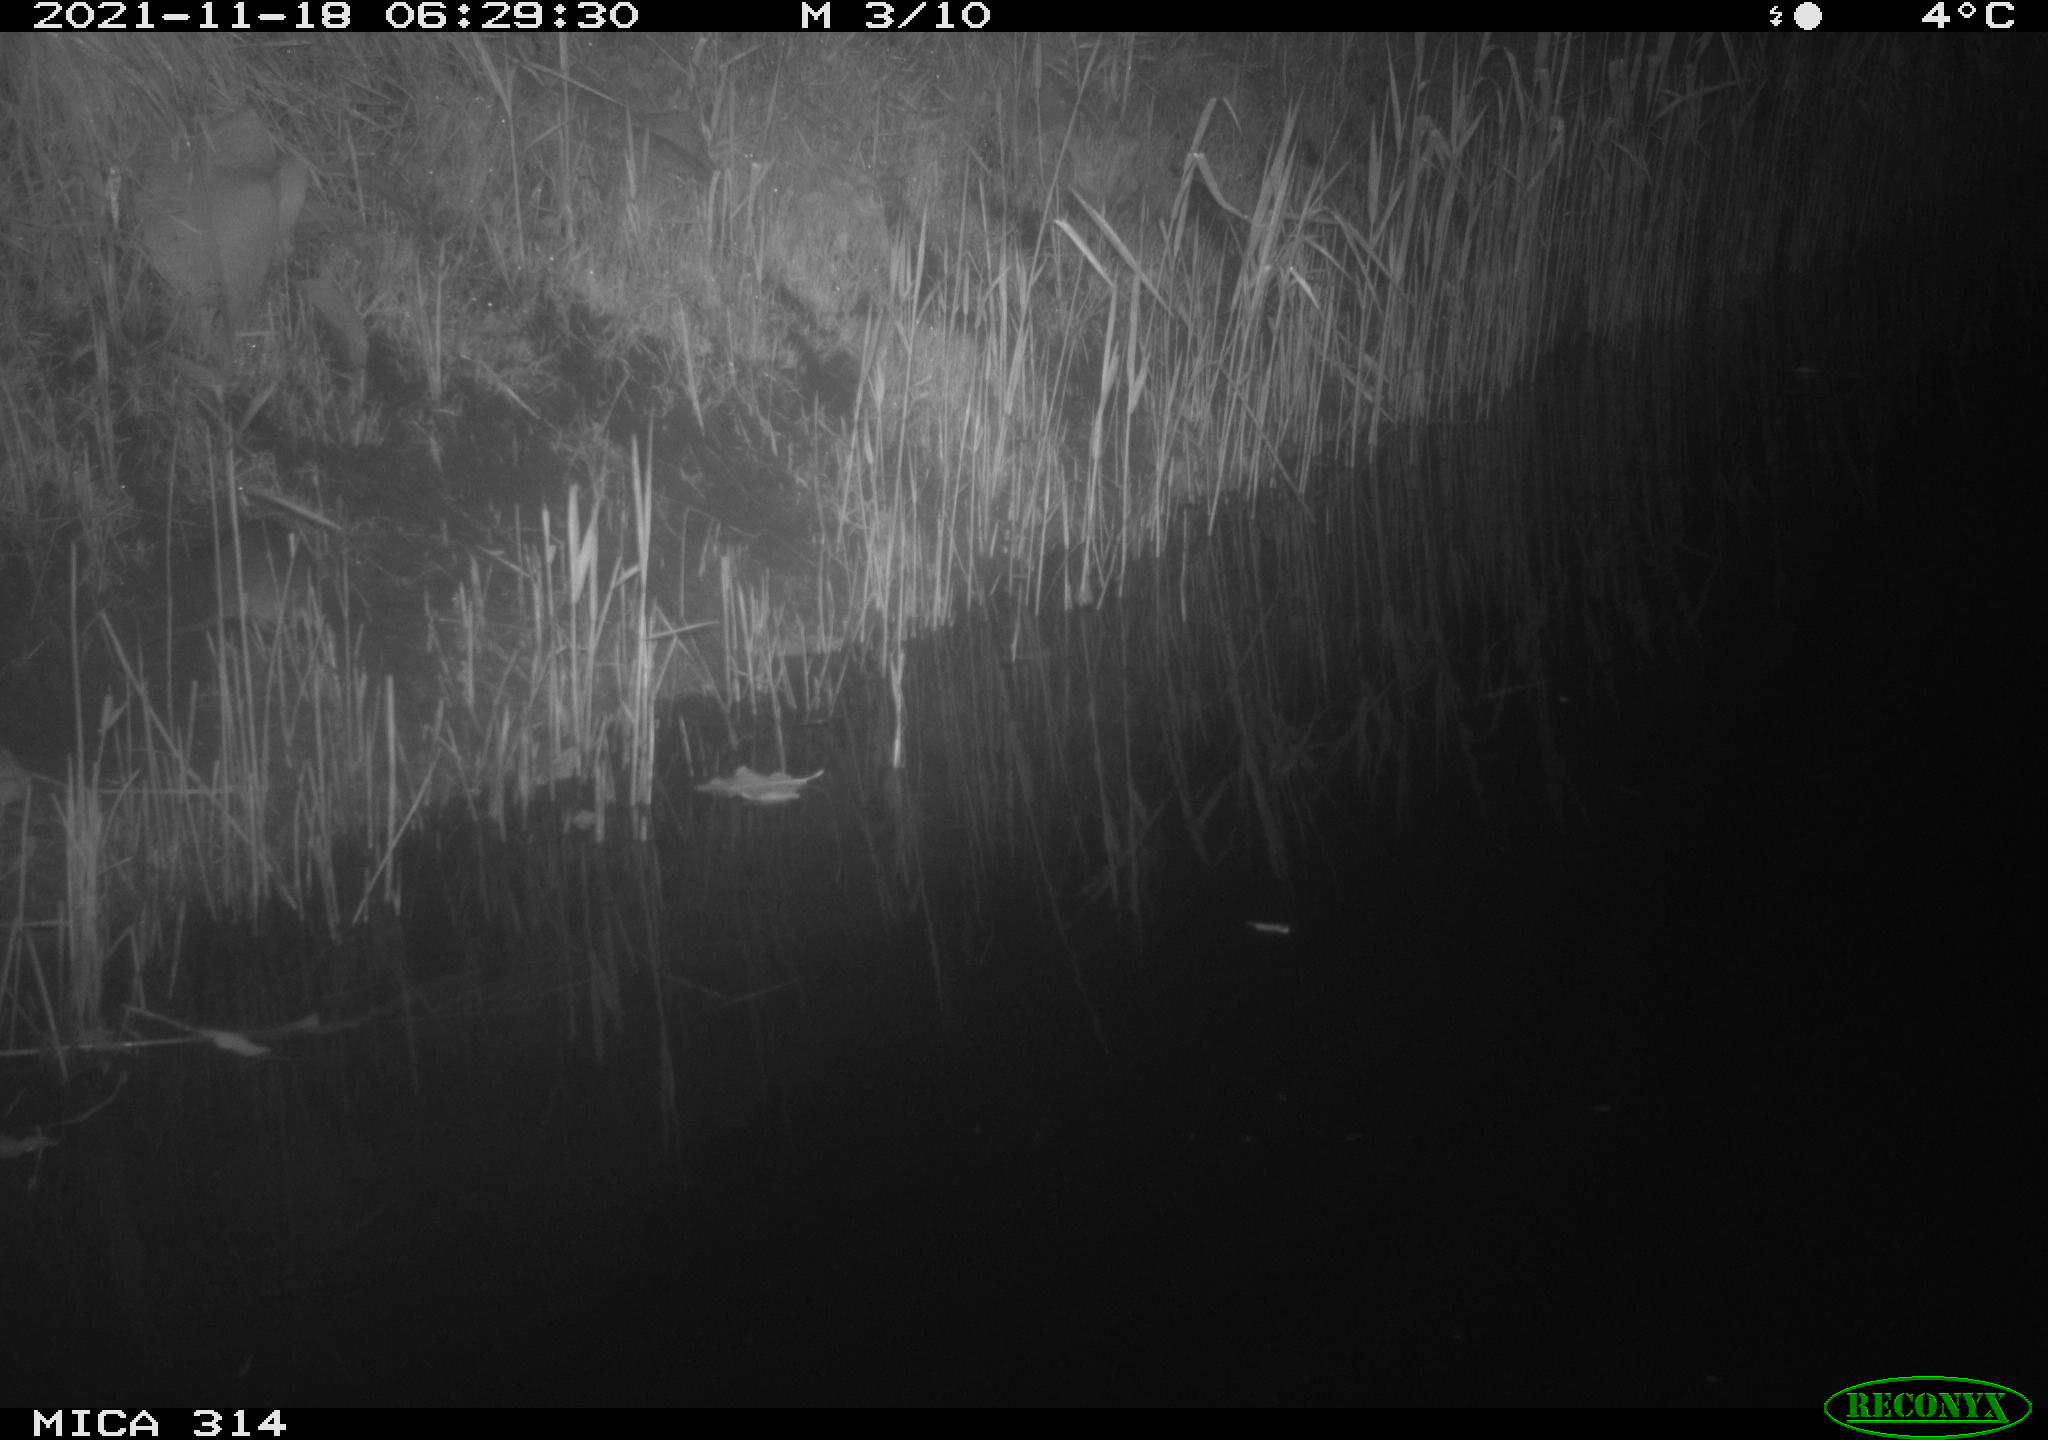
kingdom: Animalia
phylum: Chordata
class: Mammalia
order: Rodentia
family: Muridae
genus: Rattus
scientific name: Rattus norvegicus
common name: Brown rat
